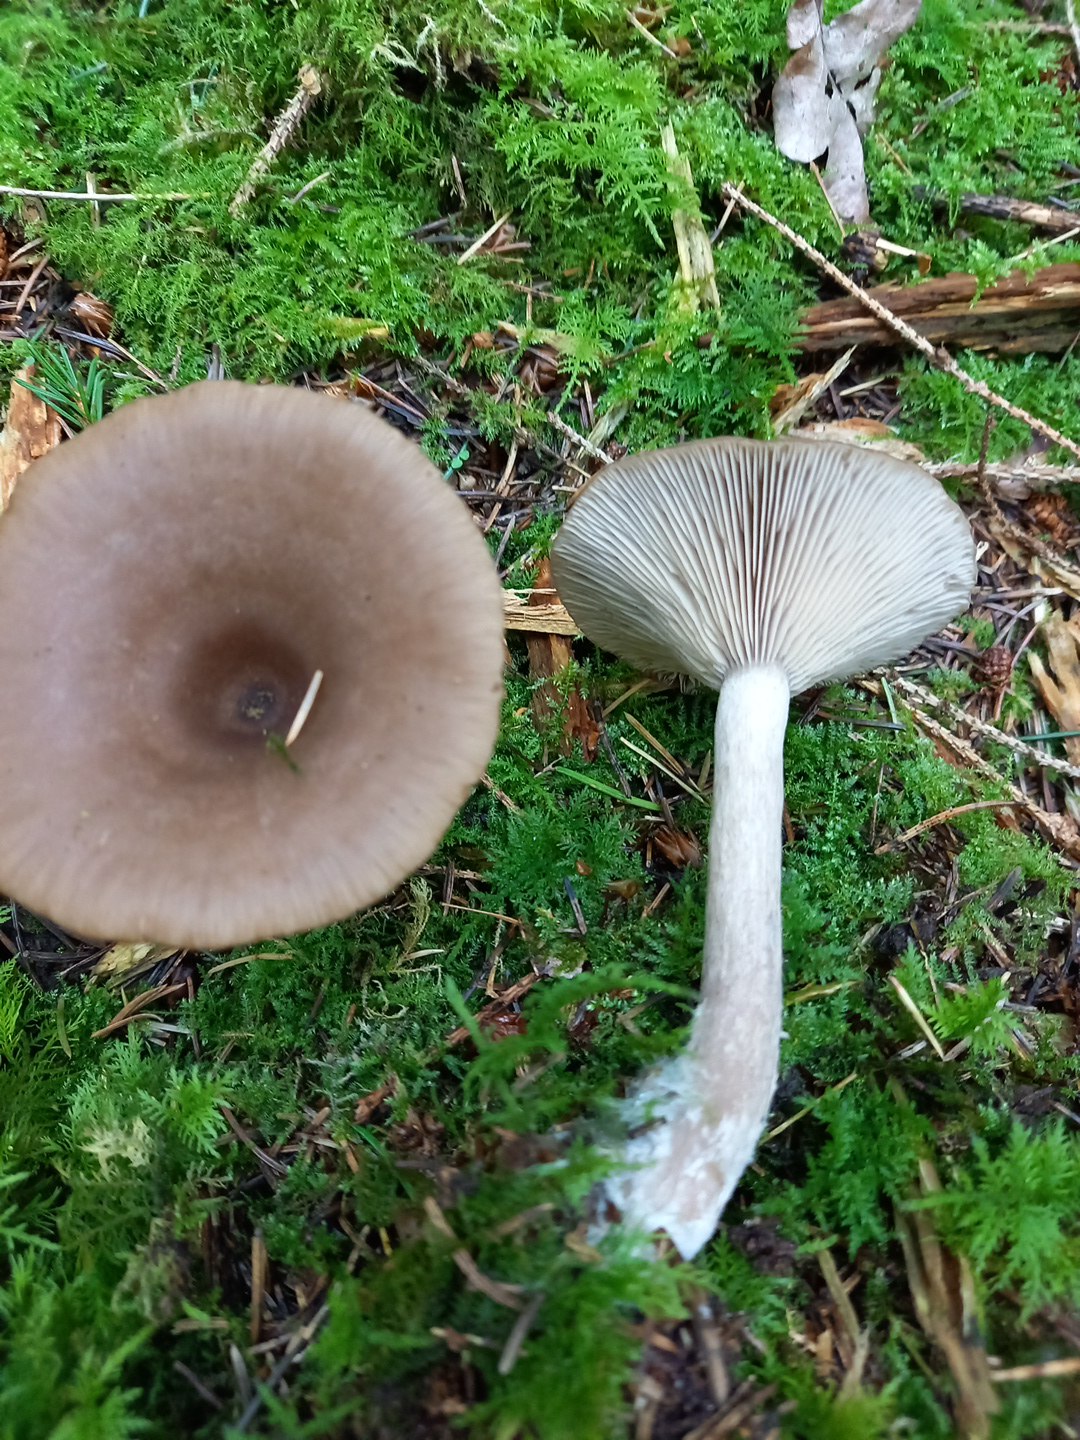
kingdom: Fungi
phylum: Basidiomycota
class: Agaricomycetes
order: Agaricales
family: Pseudoclitocybaceae
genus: Pseudoclitocybe
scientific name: Pseudoclitocybe cyathiformis
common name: almindelig bægertragthat
